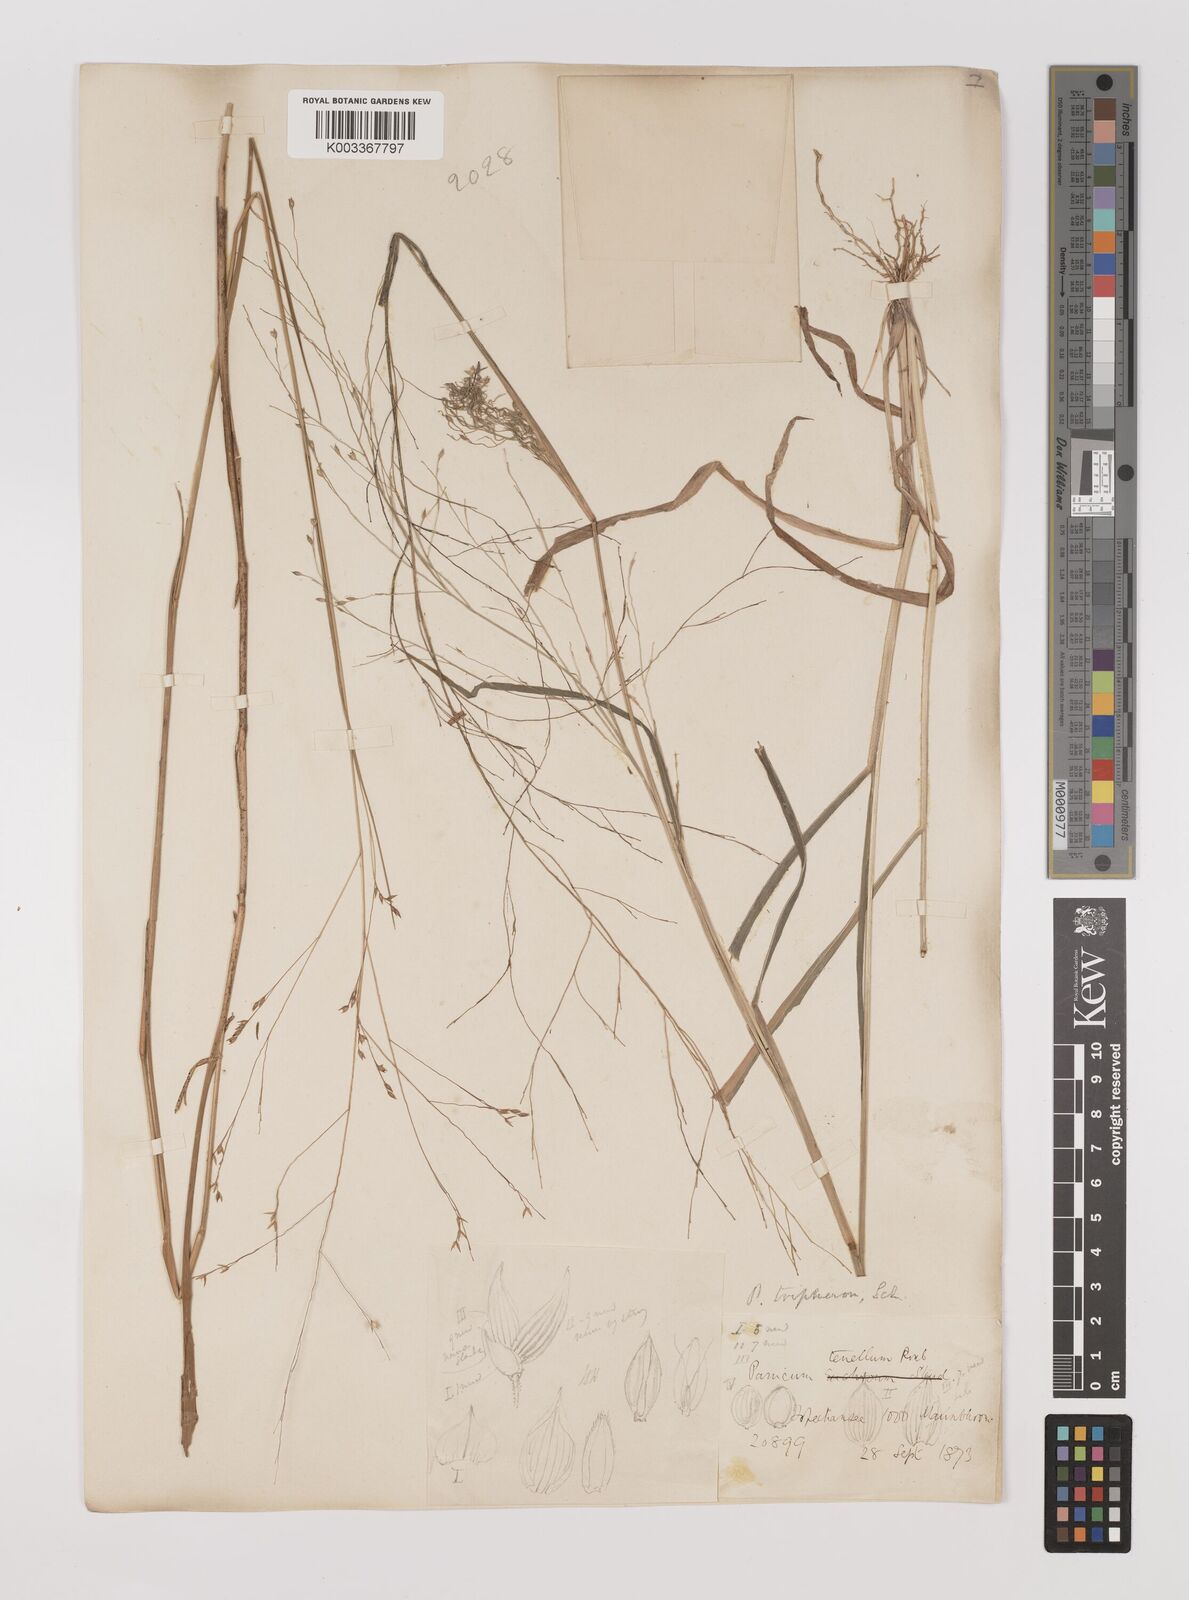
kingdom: Plantae
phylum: Tracheophyta
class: Liliopsida
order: Poales
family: Poaceae
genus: Panicum
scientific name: Panicum curviflorum
